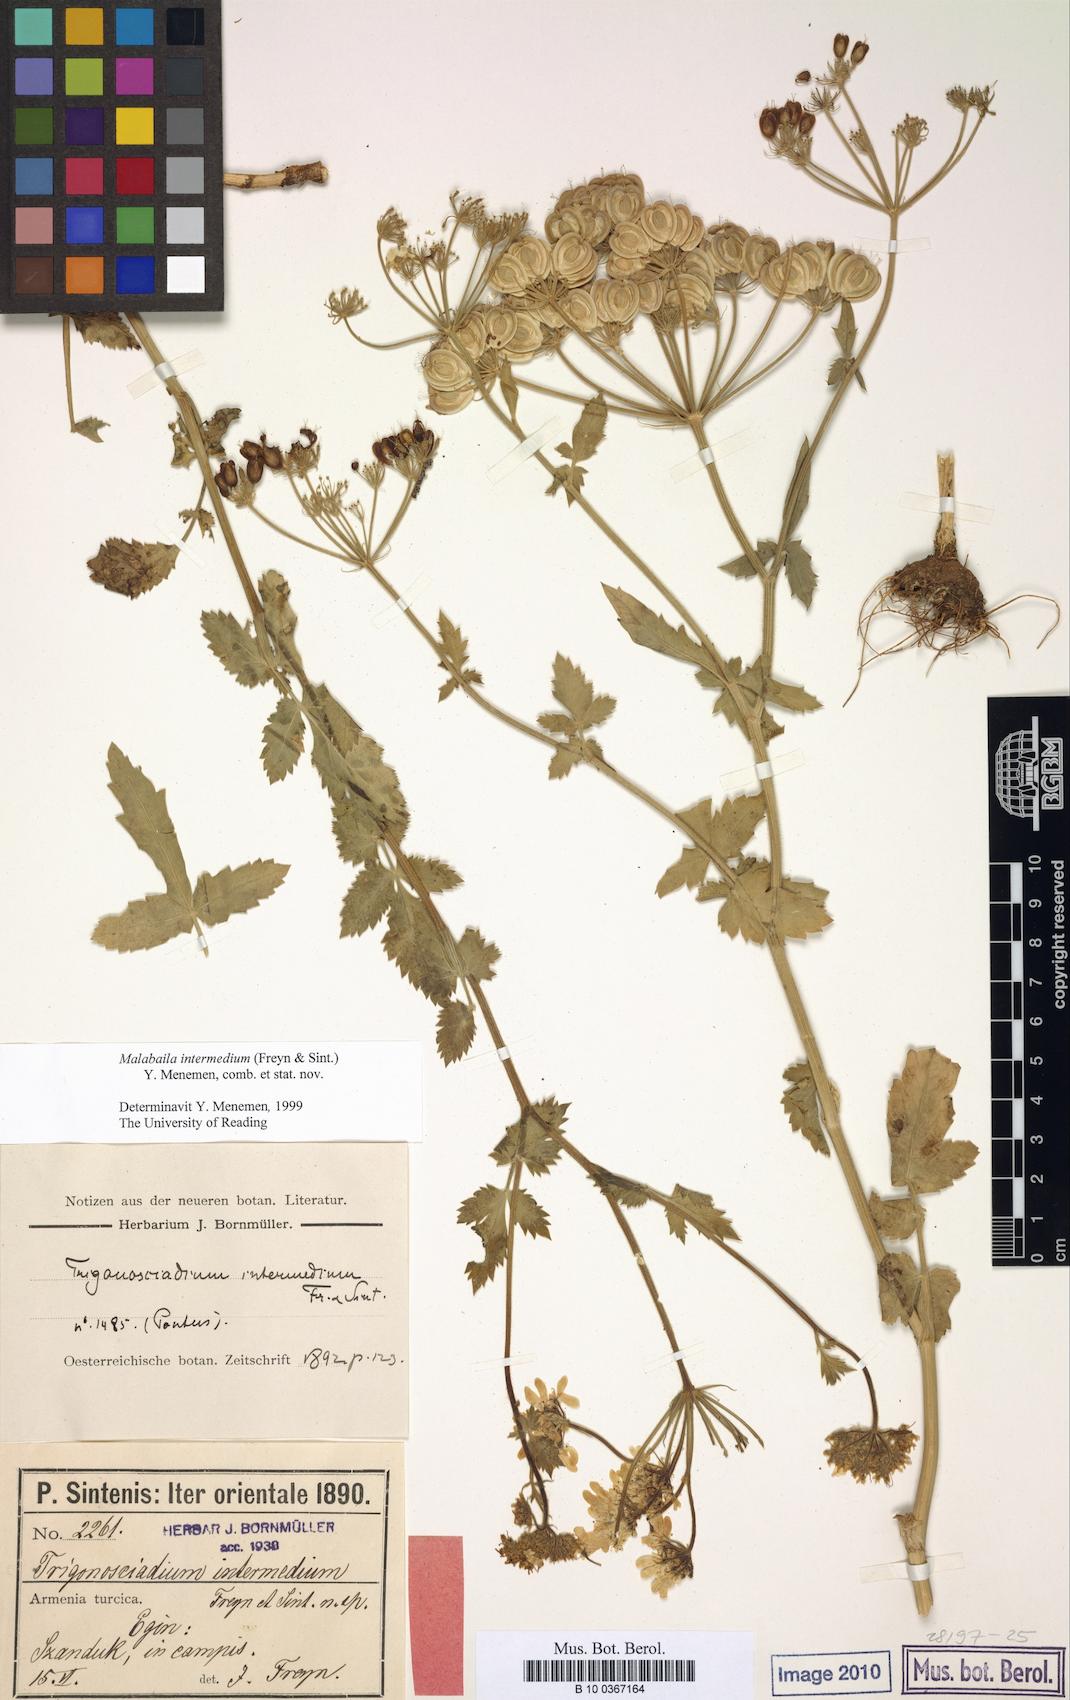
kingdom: Plantae
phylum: Tracheophyta
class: Magnoliopsida
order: Apiales
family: Apiaceae
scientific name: Apiaceae
